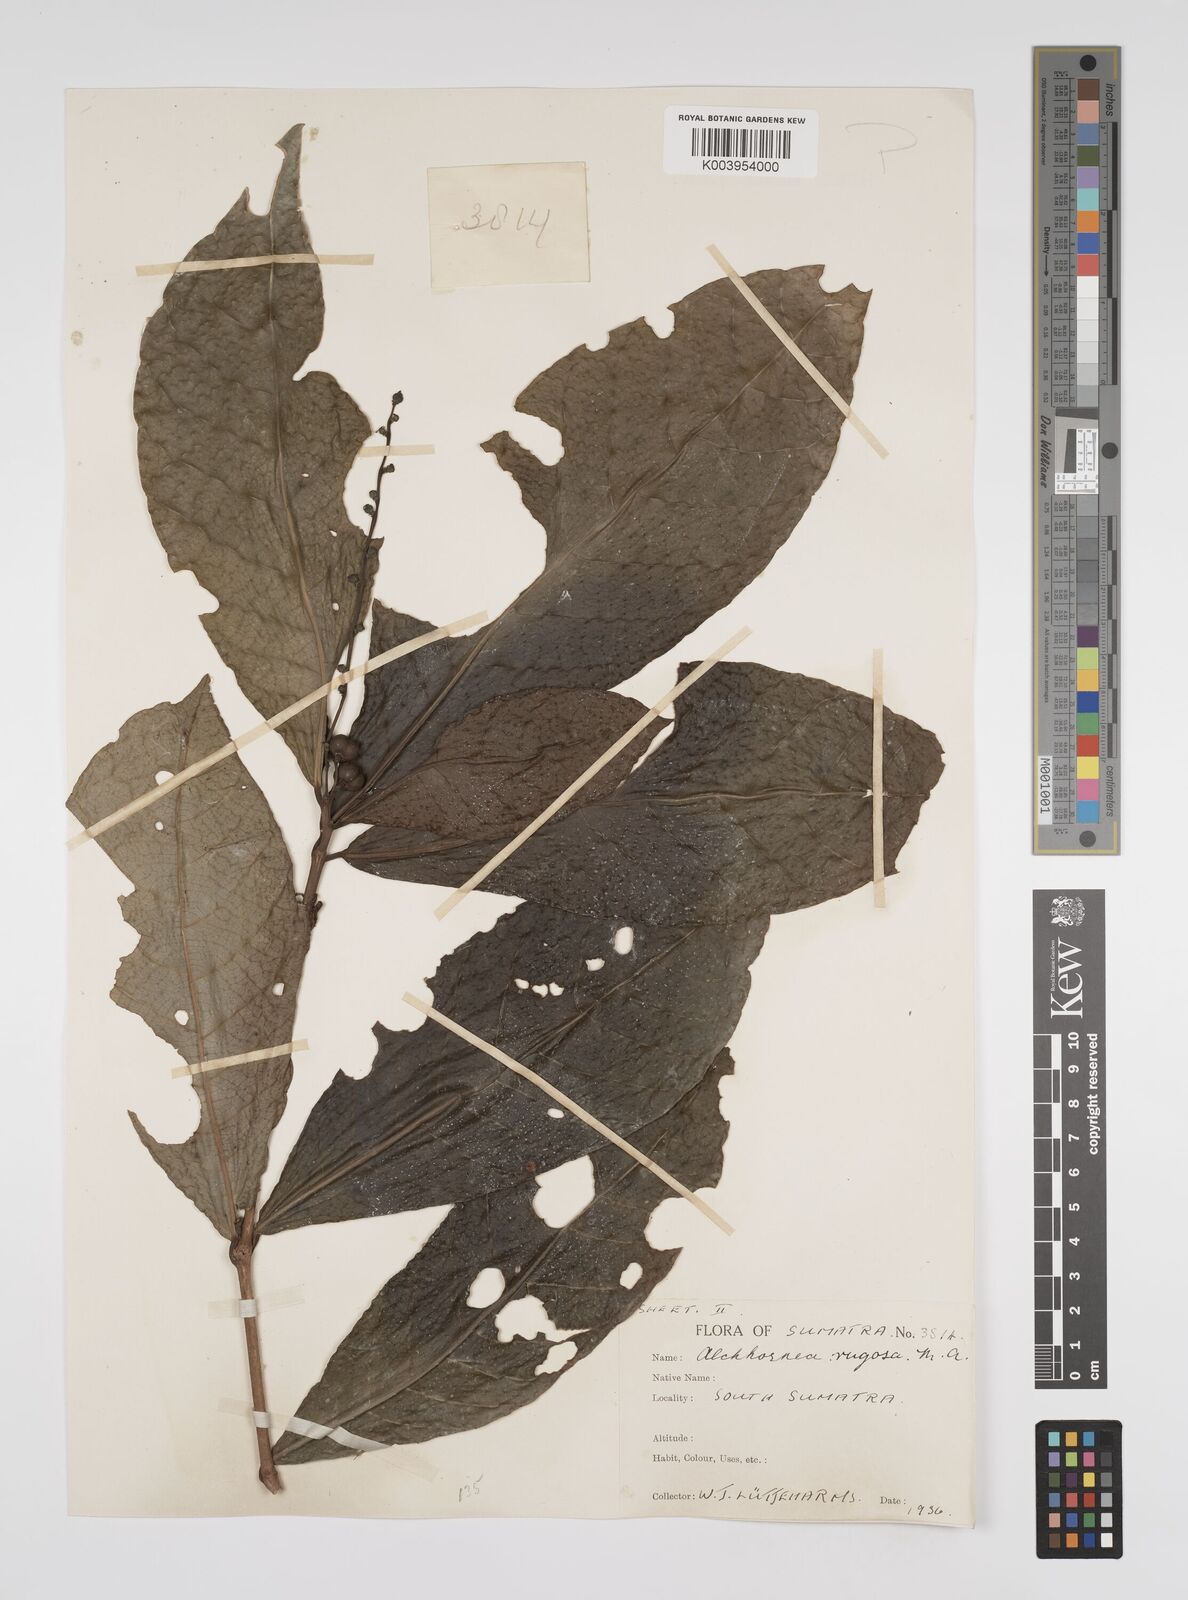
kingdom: Plantae
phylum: Tracheophyta
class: Magnoliopsida
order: Malpighiales
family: Euphorbiaceae
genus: Alchornea
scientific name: Alchornea rugosa
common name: Alchorntree
